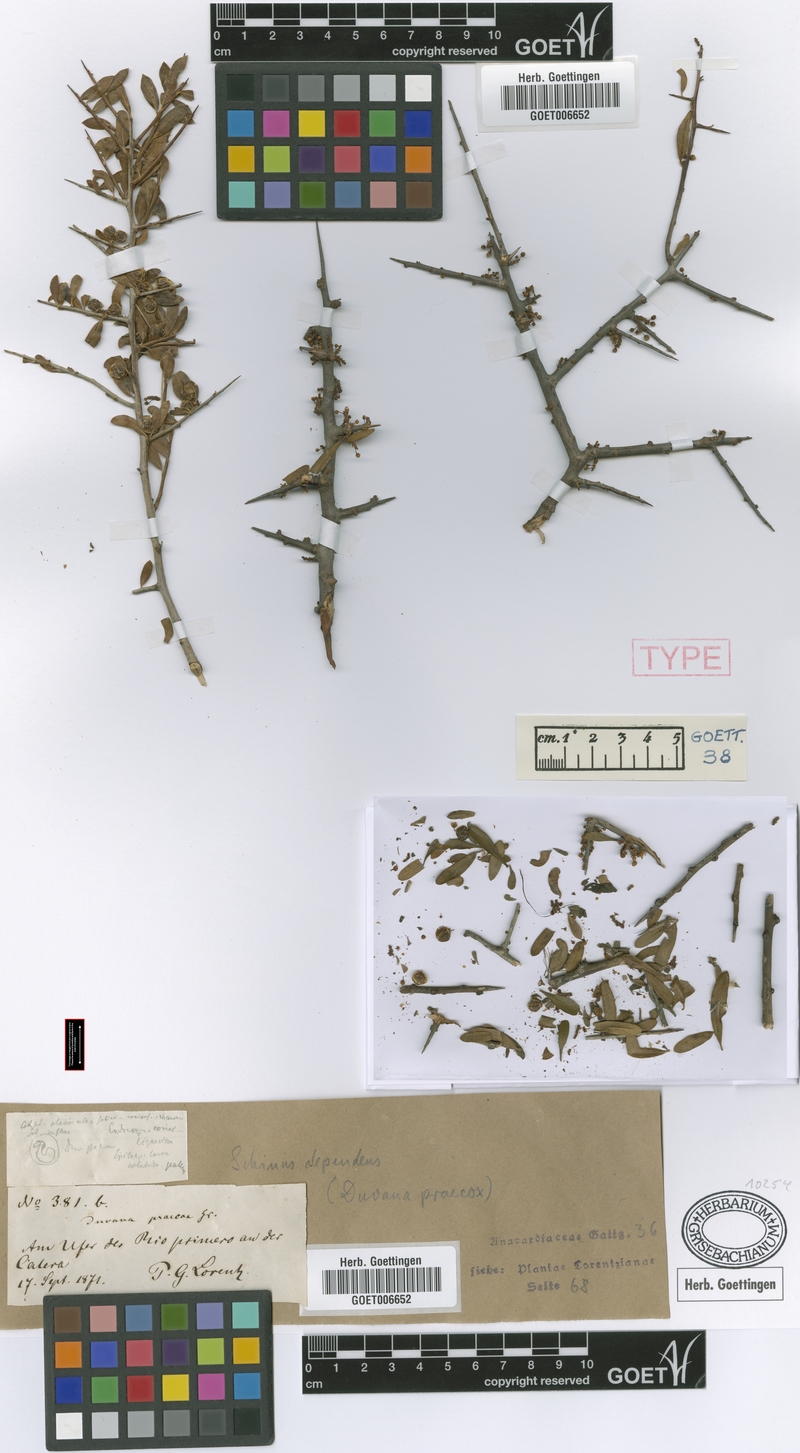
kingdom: Plantae
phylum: Tracheophyta
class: Magnoliopsida
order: Sapindales
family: Anacardiaceae
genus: Schinus
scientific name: Schinus polygama
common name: Hardee peppertree
